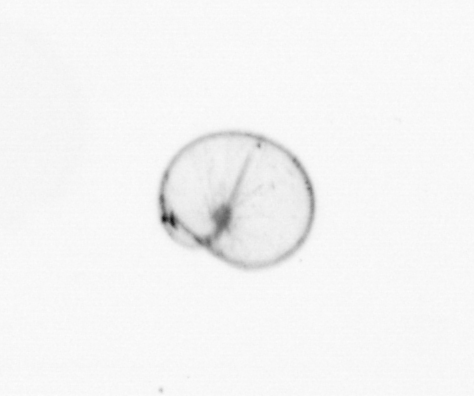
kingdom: Chromista
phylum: Myzozoa
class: Dinophyceae
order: Noctilucales
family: Noctilucaceae
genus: Noctiluca
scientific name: Noctiluca scintillans
